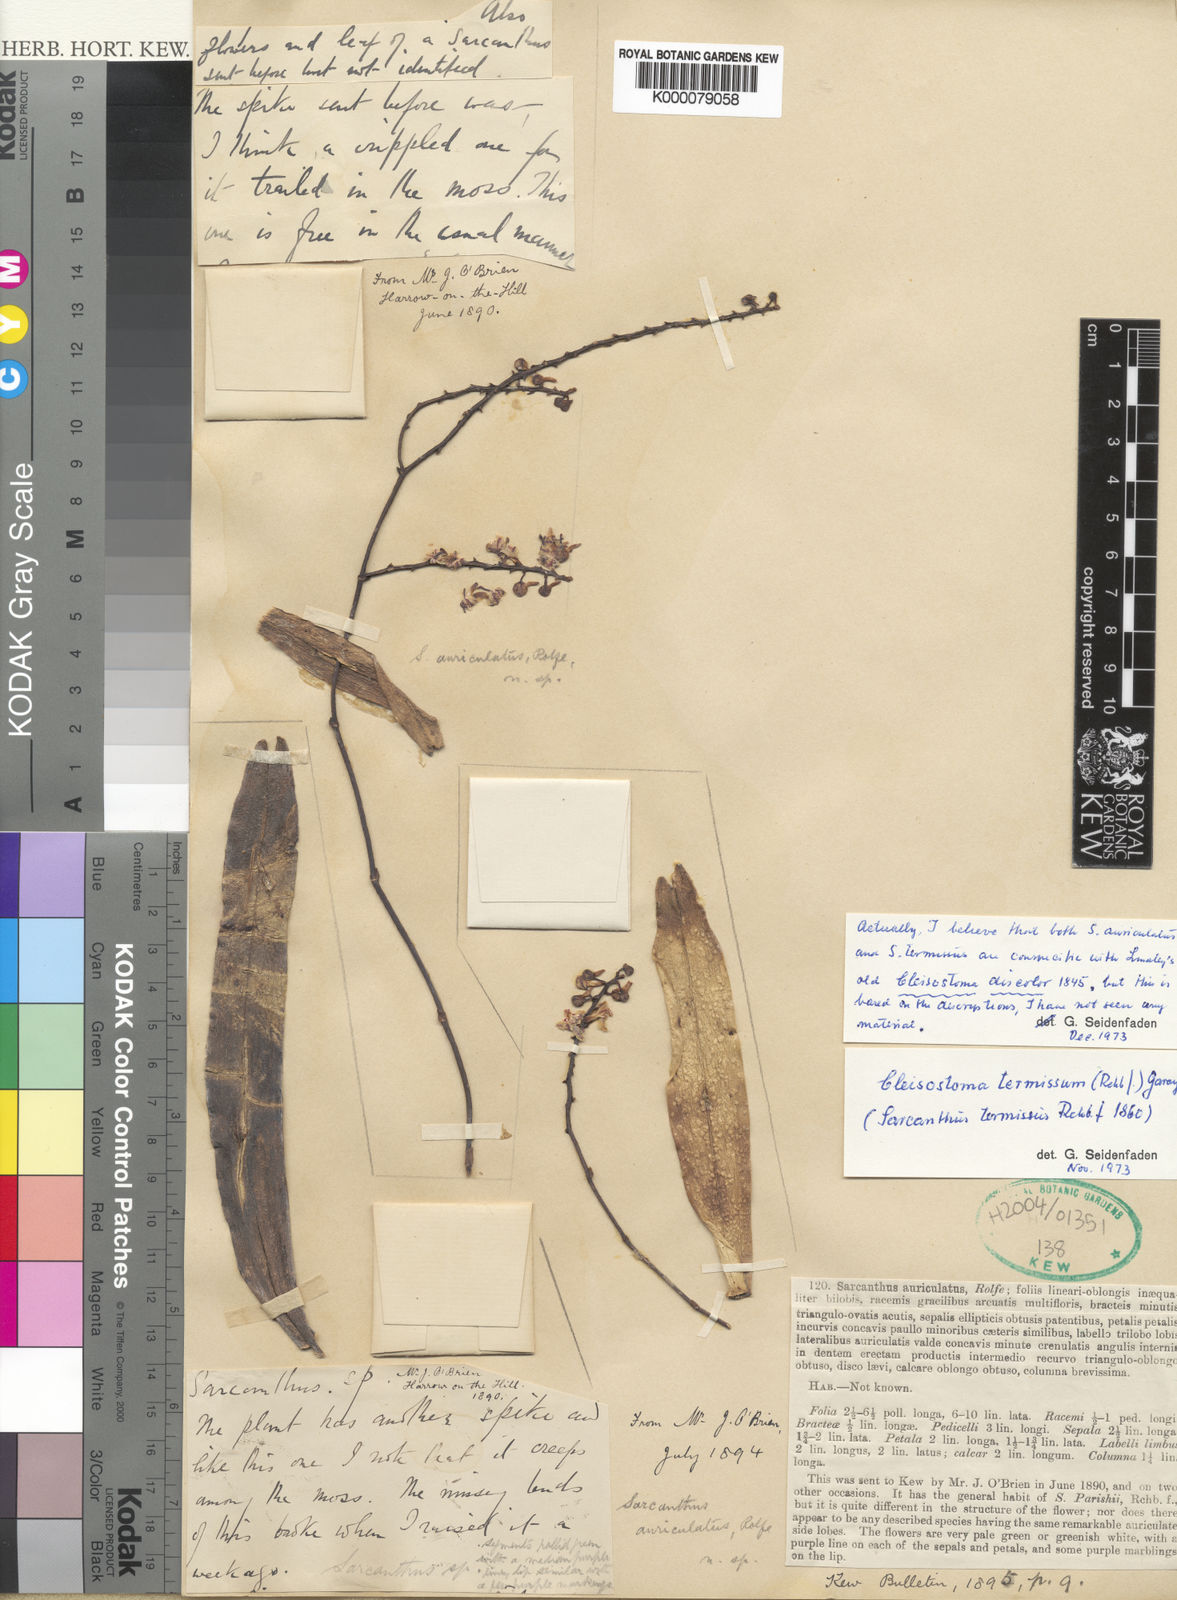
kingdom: Plantae
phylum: Tracheophyta
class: Liliopsida
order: Asparagales
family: Orchidaceae
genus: Cleisostoma
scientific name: Cleisostoma discolor
